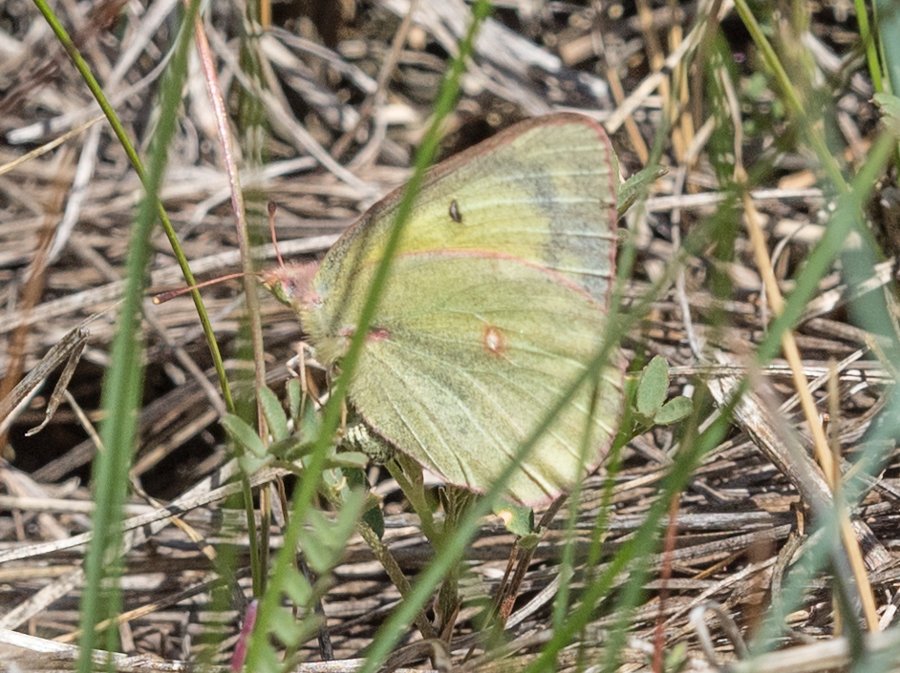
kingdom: Animalia
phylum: Arthropoda
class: Insecta
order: Lepidoptera
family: Pieridae
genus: Colias
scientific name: Colias philodice
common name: Clouded Sulphur
